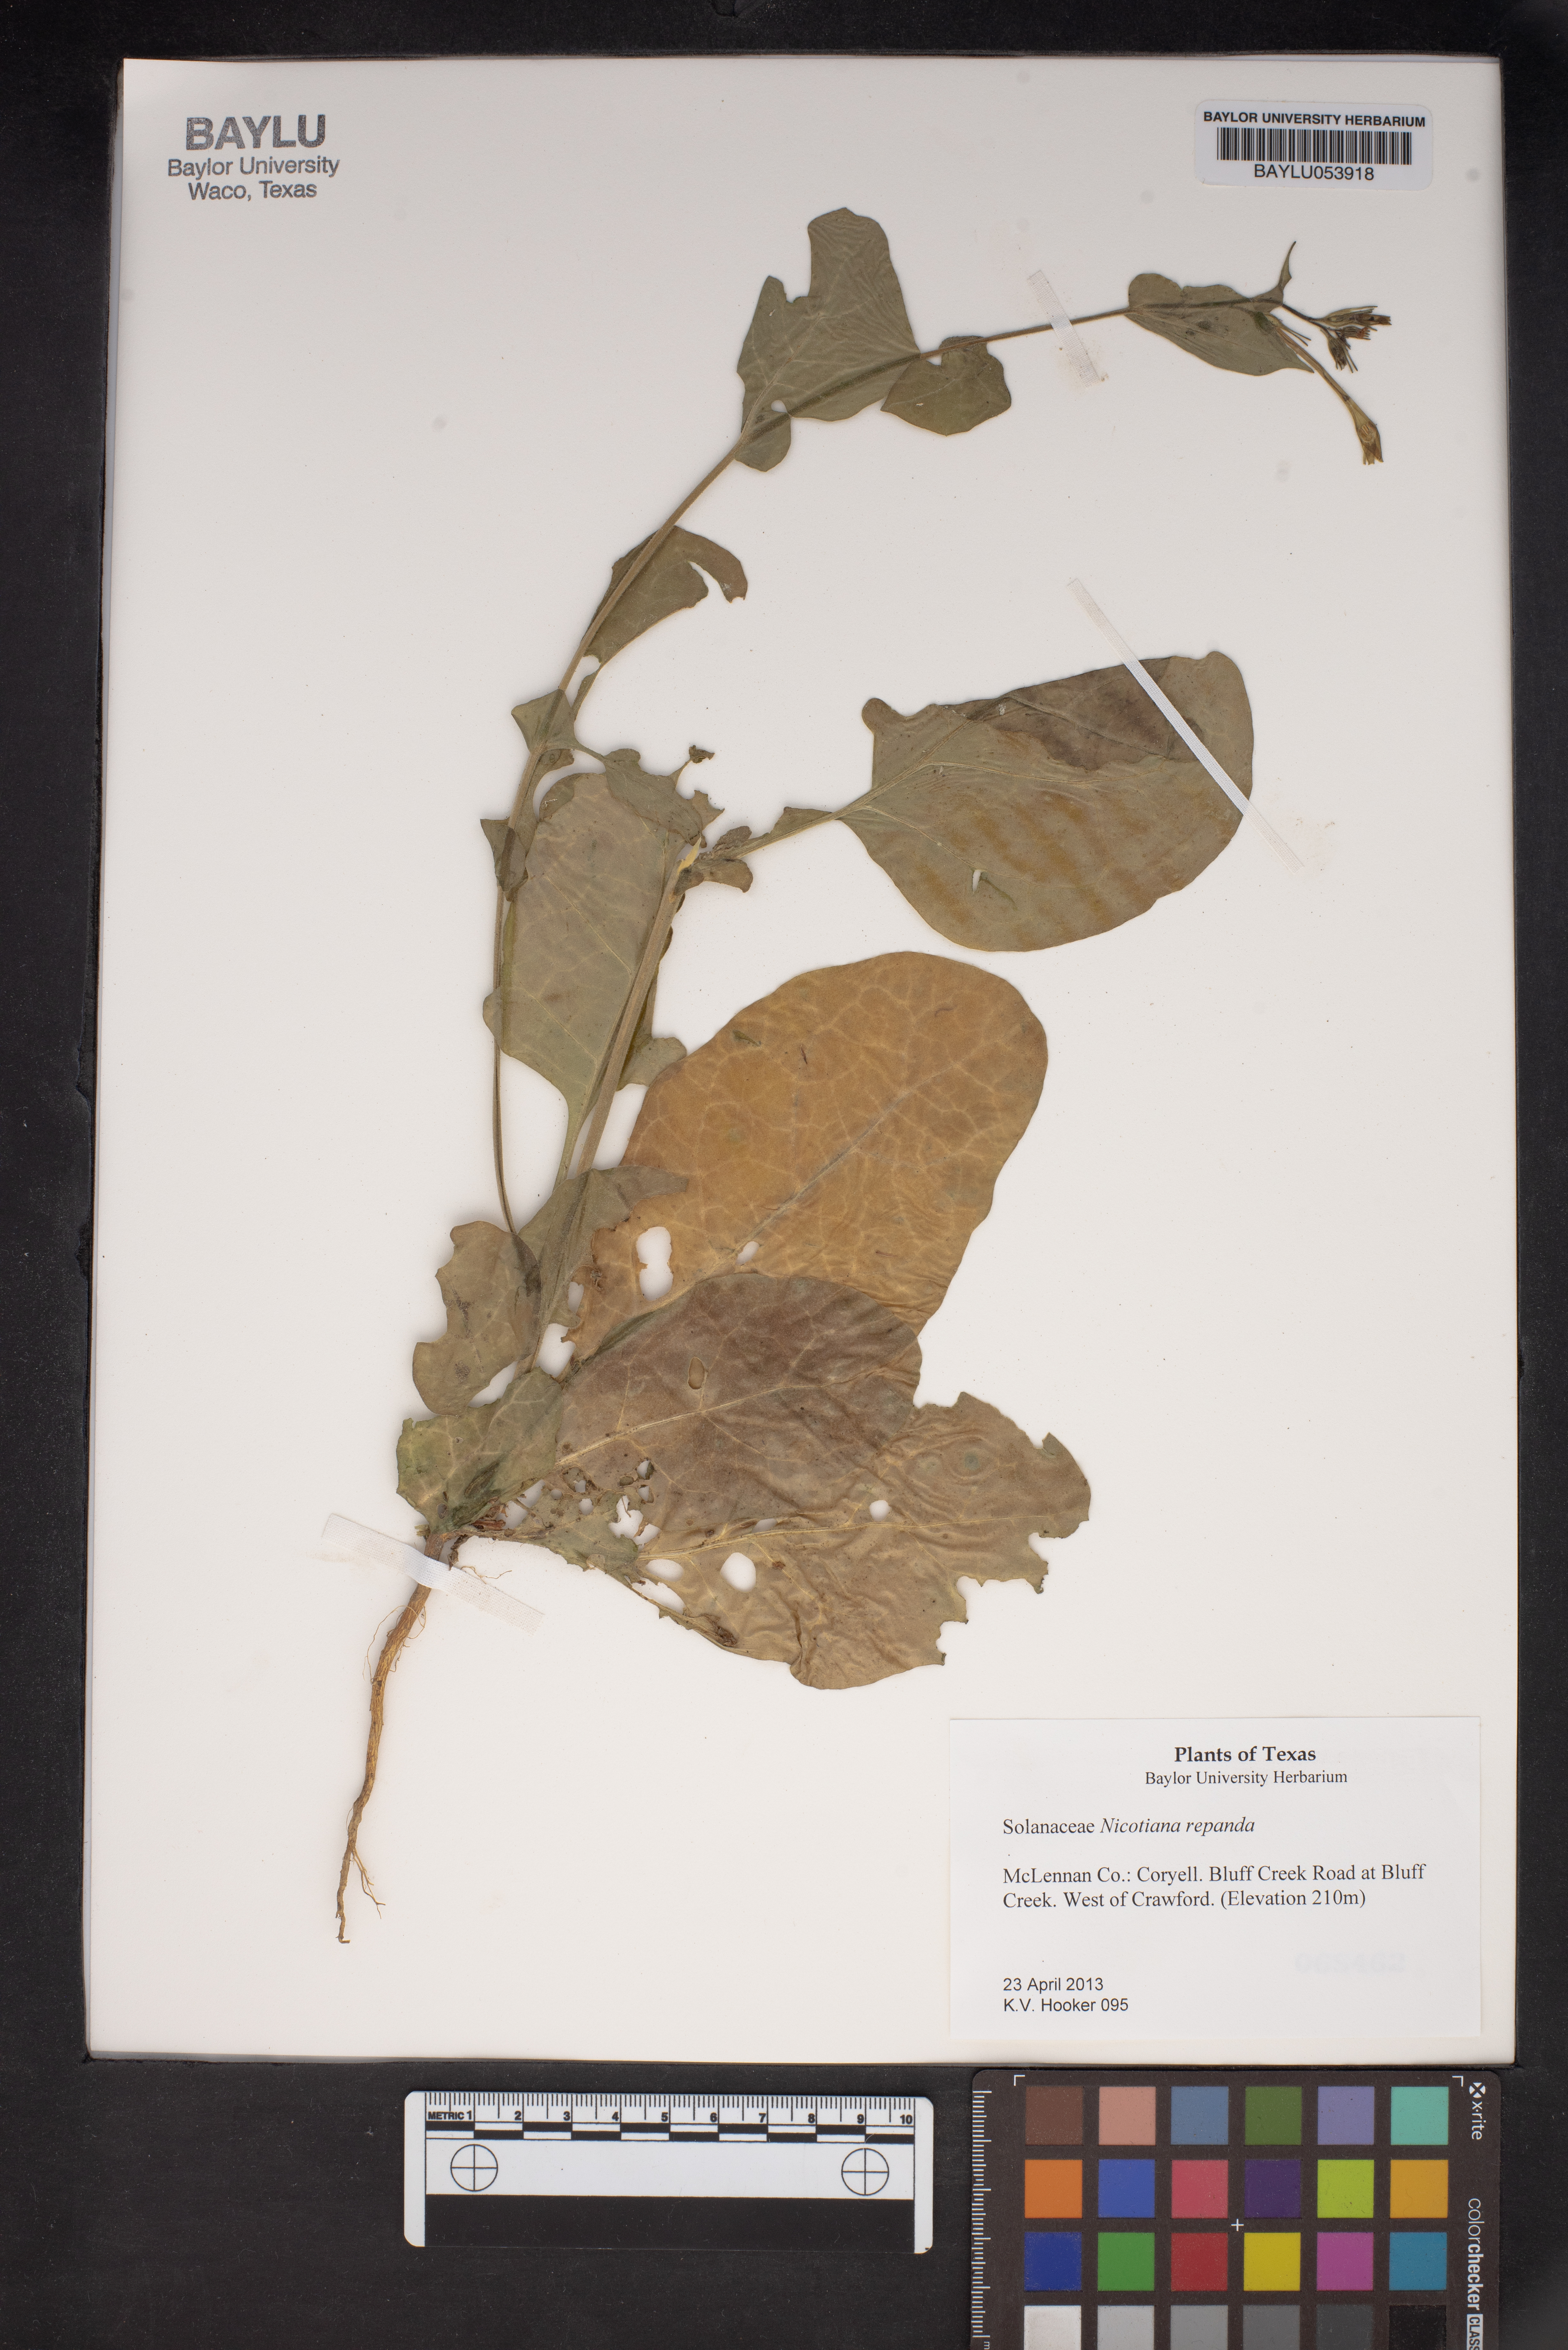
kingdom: Plantae
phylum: Tracheophyta
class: Magnoliopsida
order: Solanales
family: Solanaceae
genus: Nicotiana
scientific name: Nicotiana repanda
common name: Fiddle-leaf tobacco
